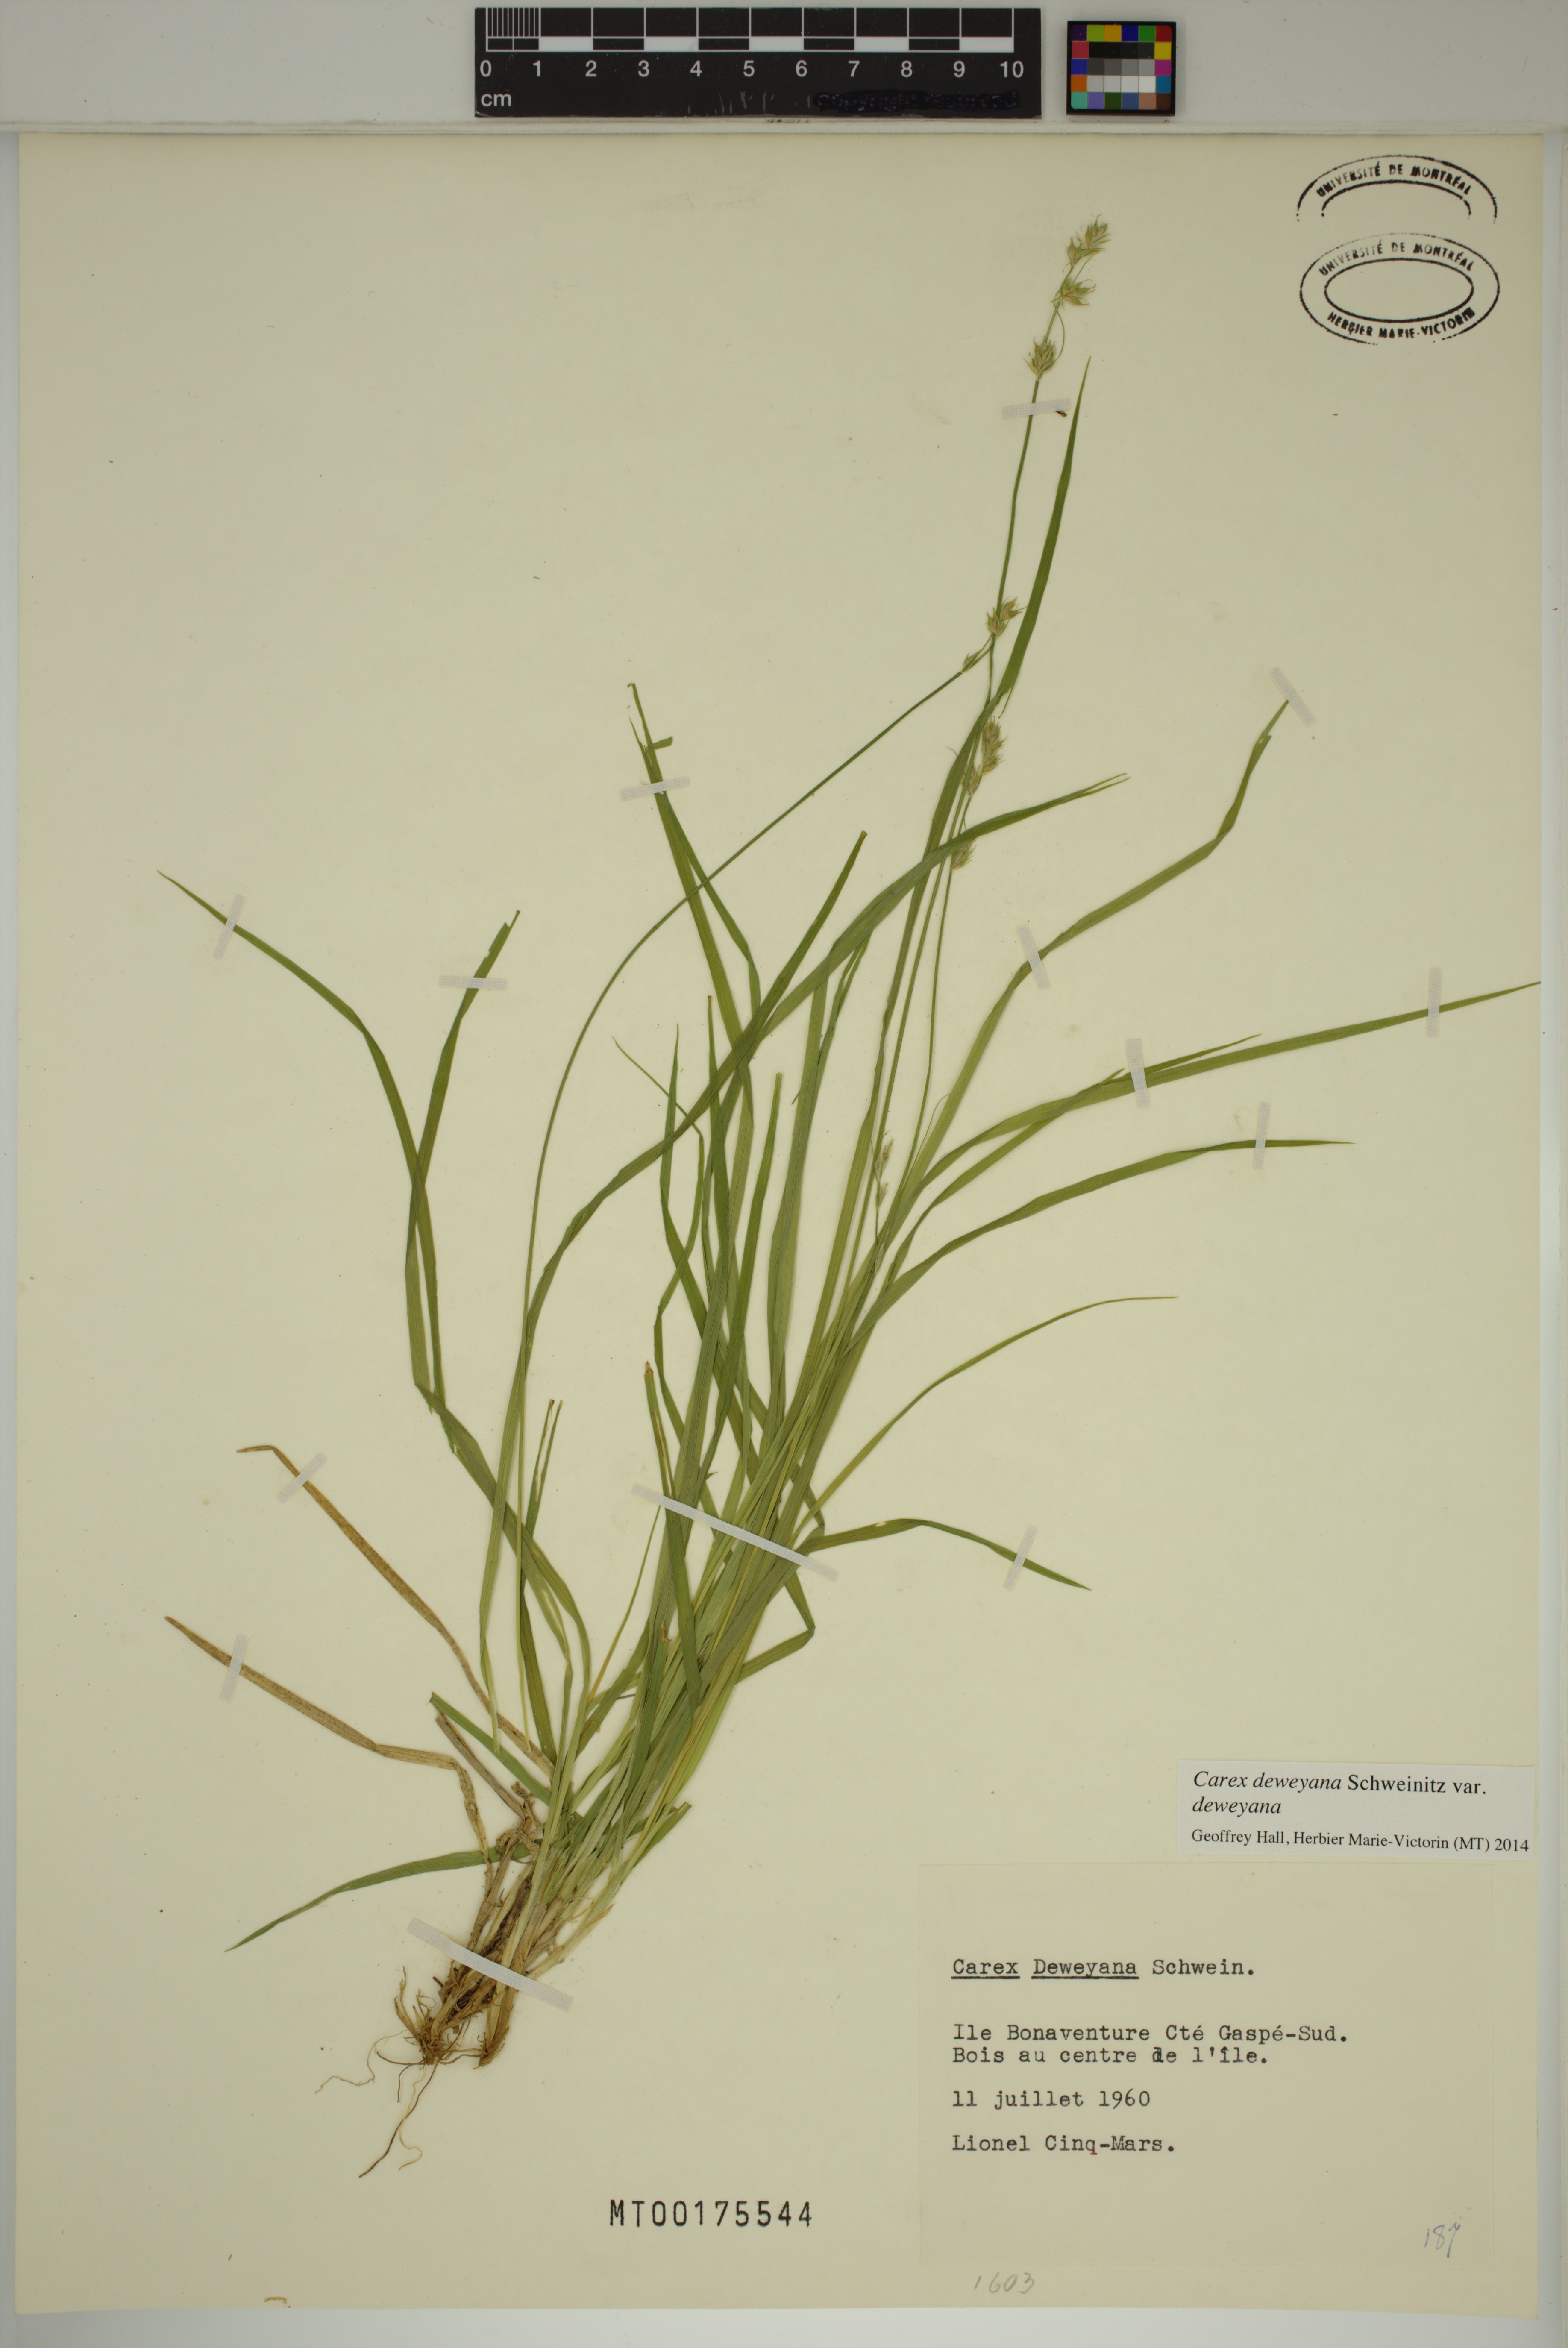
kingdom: Plantae
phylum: Tracheophyta
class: Liliopsida
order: Poales
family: Cyperaceae
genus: Carex
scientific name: Carex deweyana
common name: Dewey's sedge
